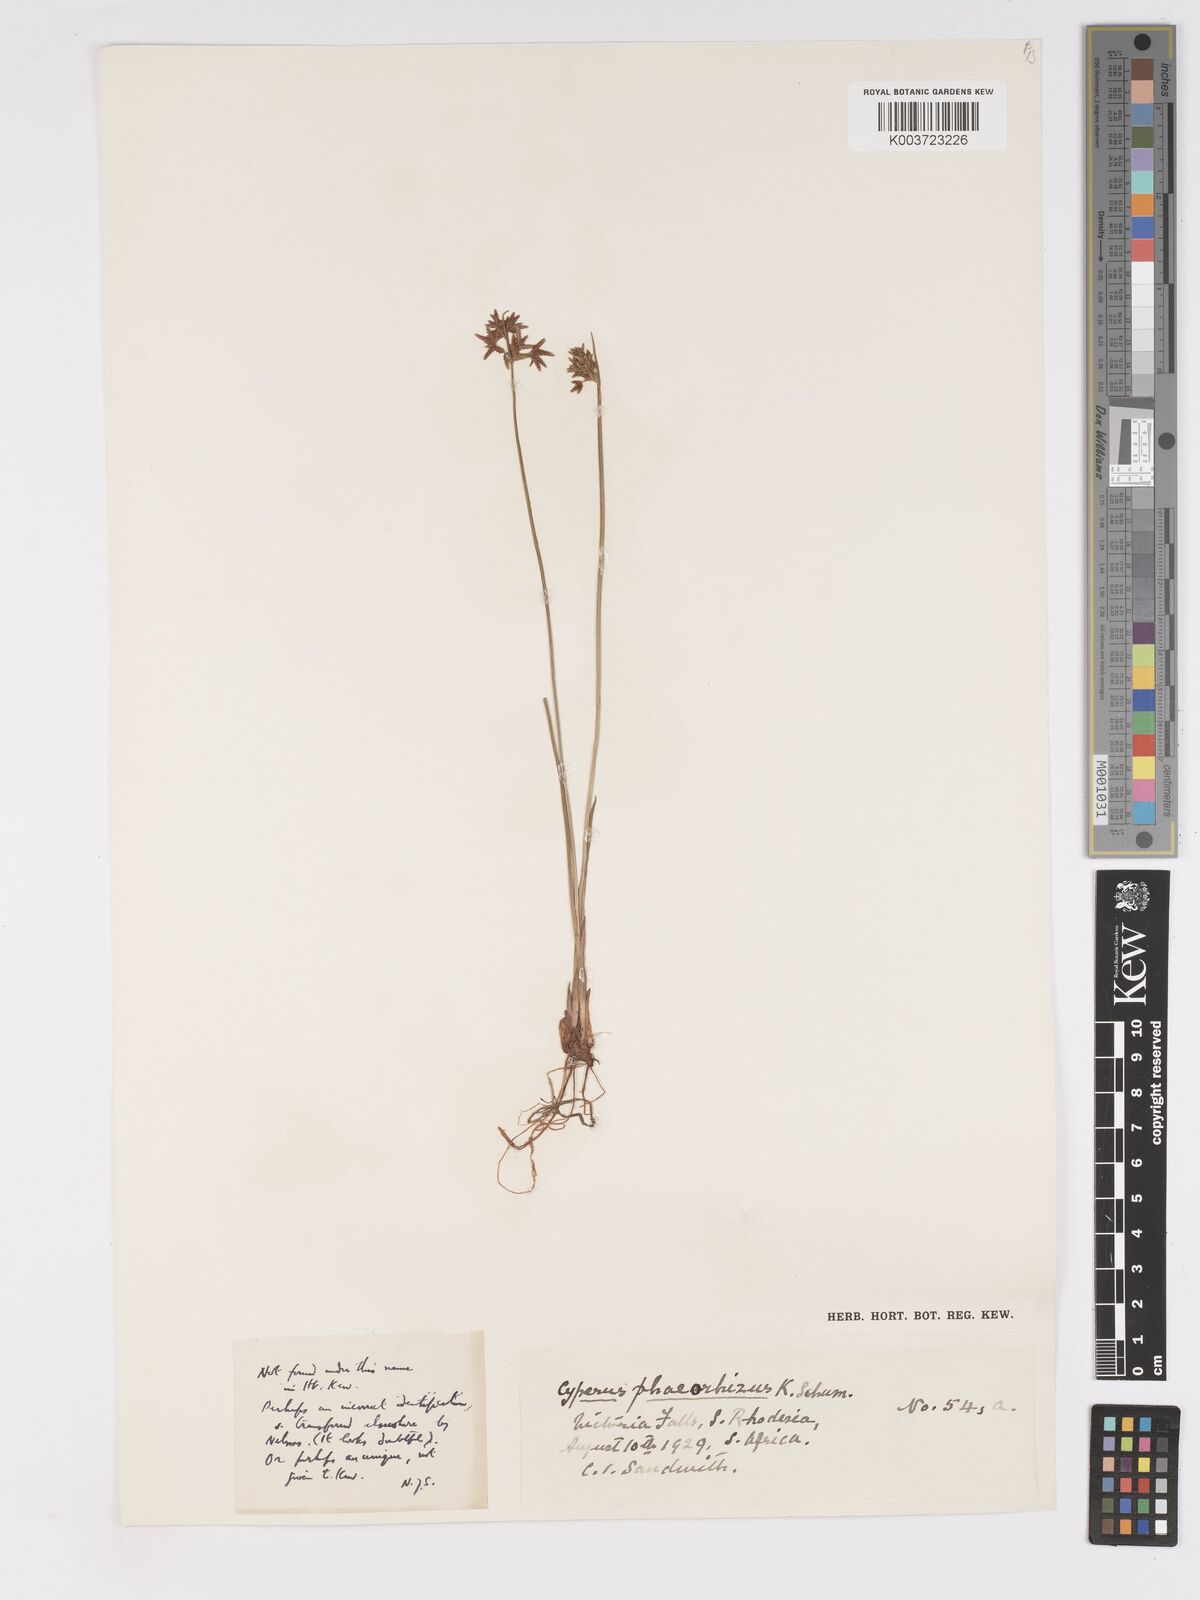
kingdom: Plantae
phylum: Tracheophyta
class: Liliopsida
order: Poales
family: Cyperaceae
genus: Cyperus
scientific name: Cyperus haspan
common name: Haspan flatsedge
